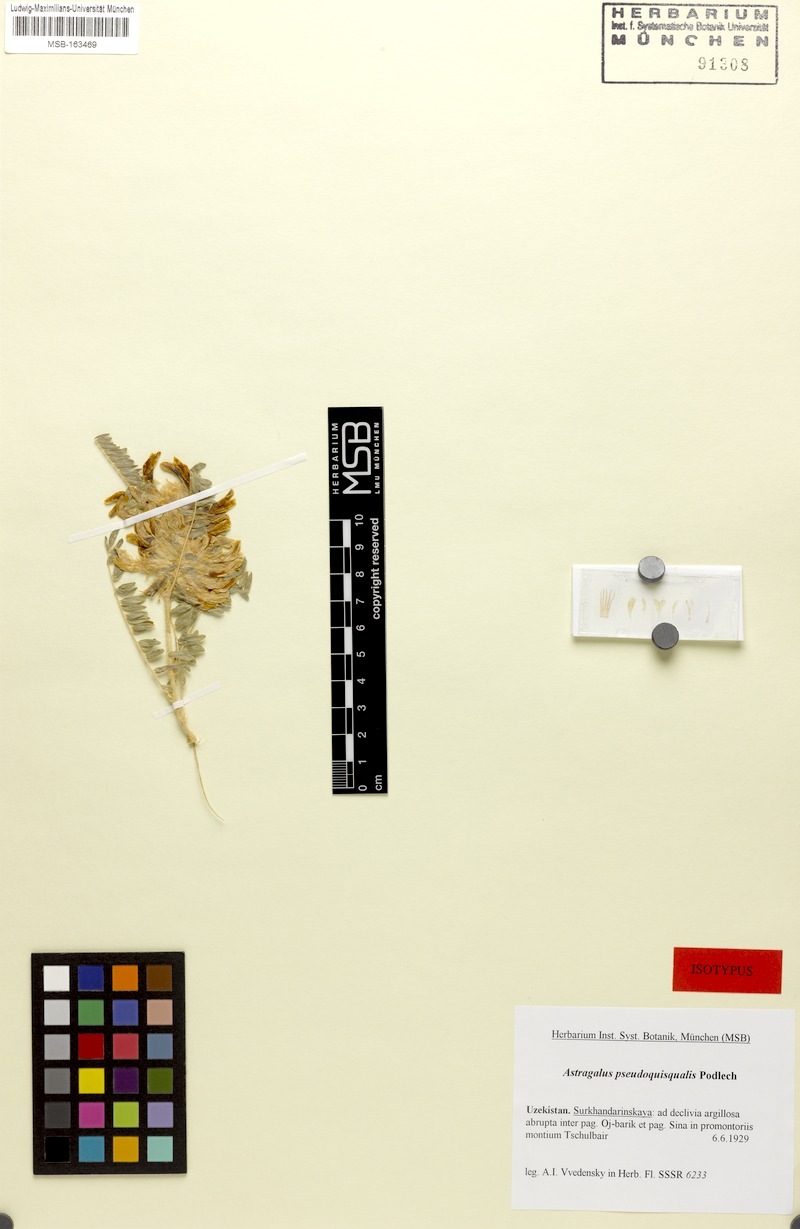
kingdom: Plantae
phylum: Tracheophyta
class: Magnoliopsida
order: Fabales
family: Fabaceae
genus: Astragalus
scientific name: Astragalus pseudoquisqualis
